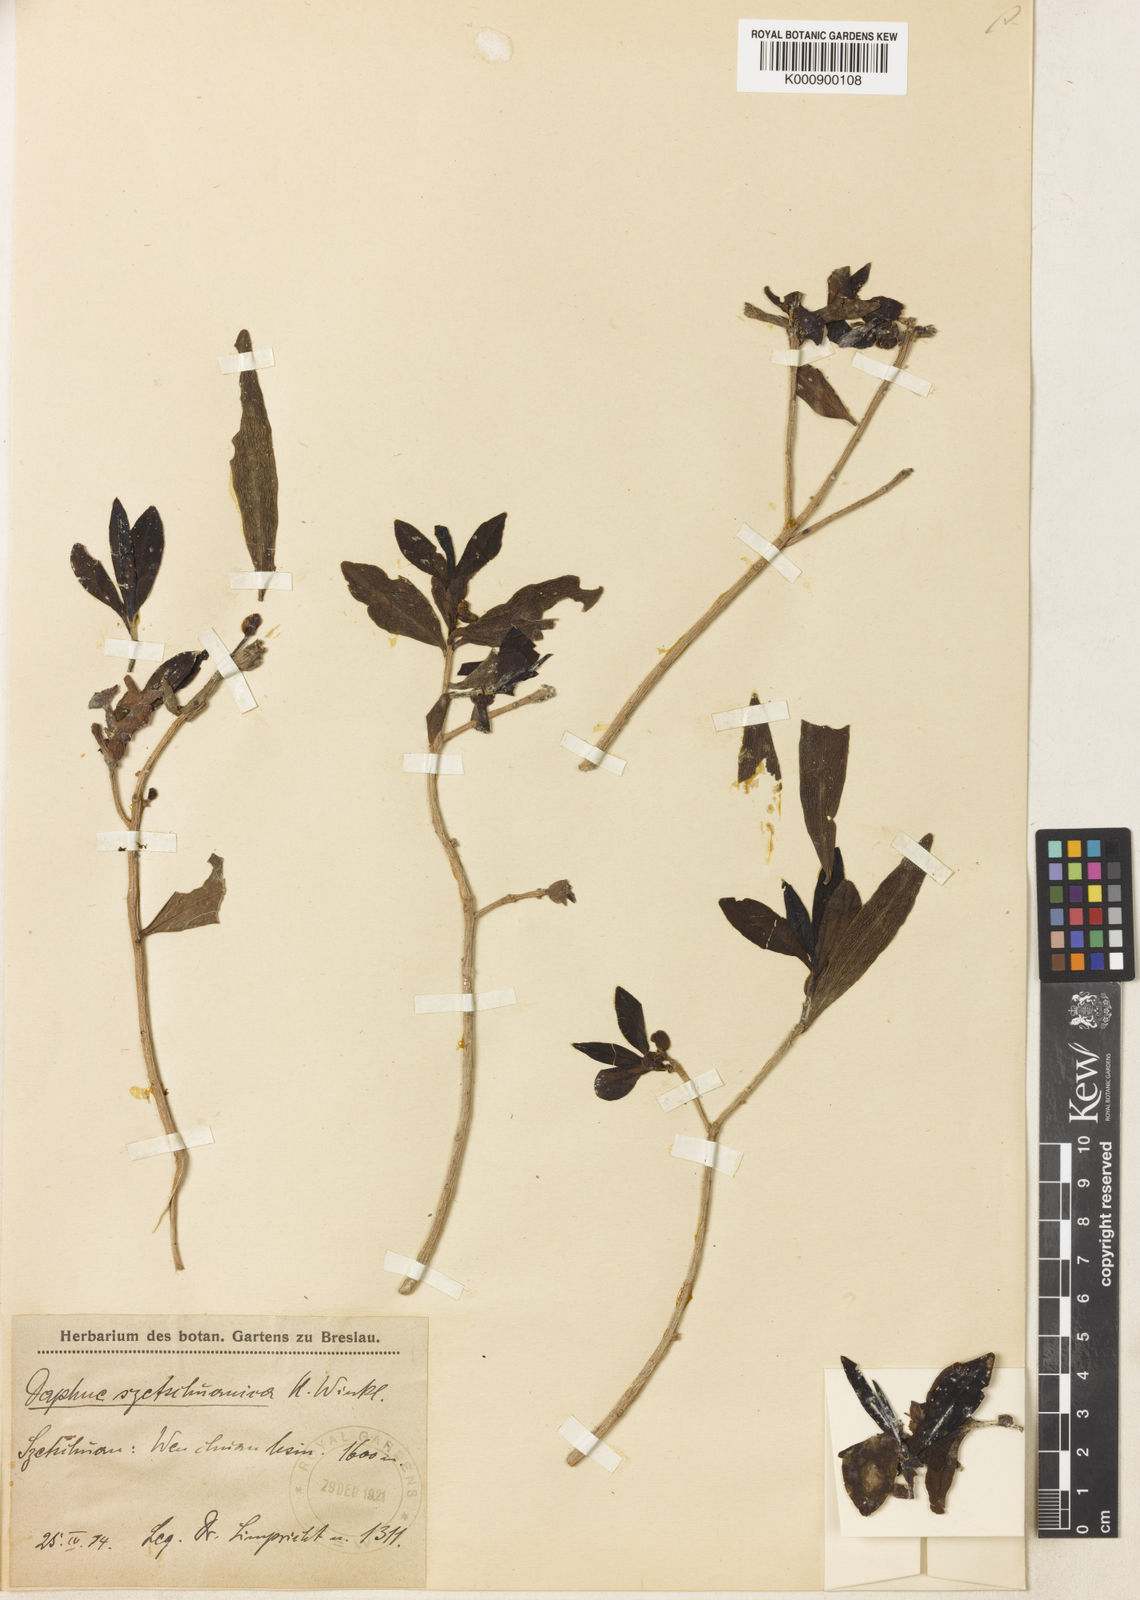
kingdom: Plantae
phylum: Tracheophyta
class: Magnoliopsida
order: Malvales
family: Thymelaeaceae
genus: Daphne
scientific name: Daphne tangutica
